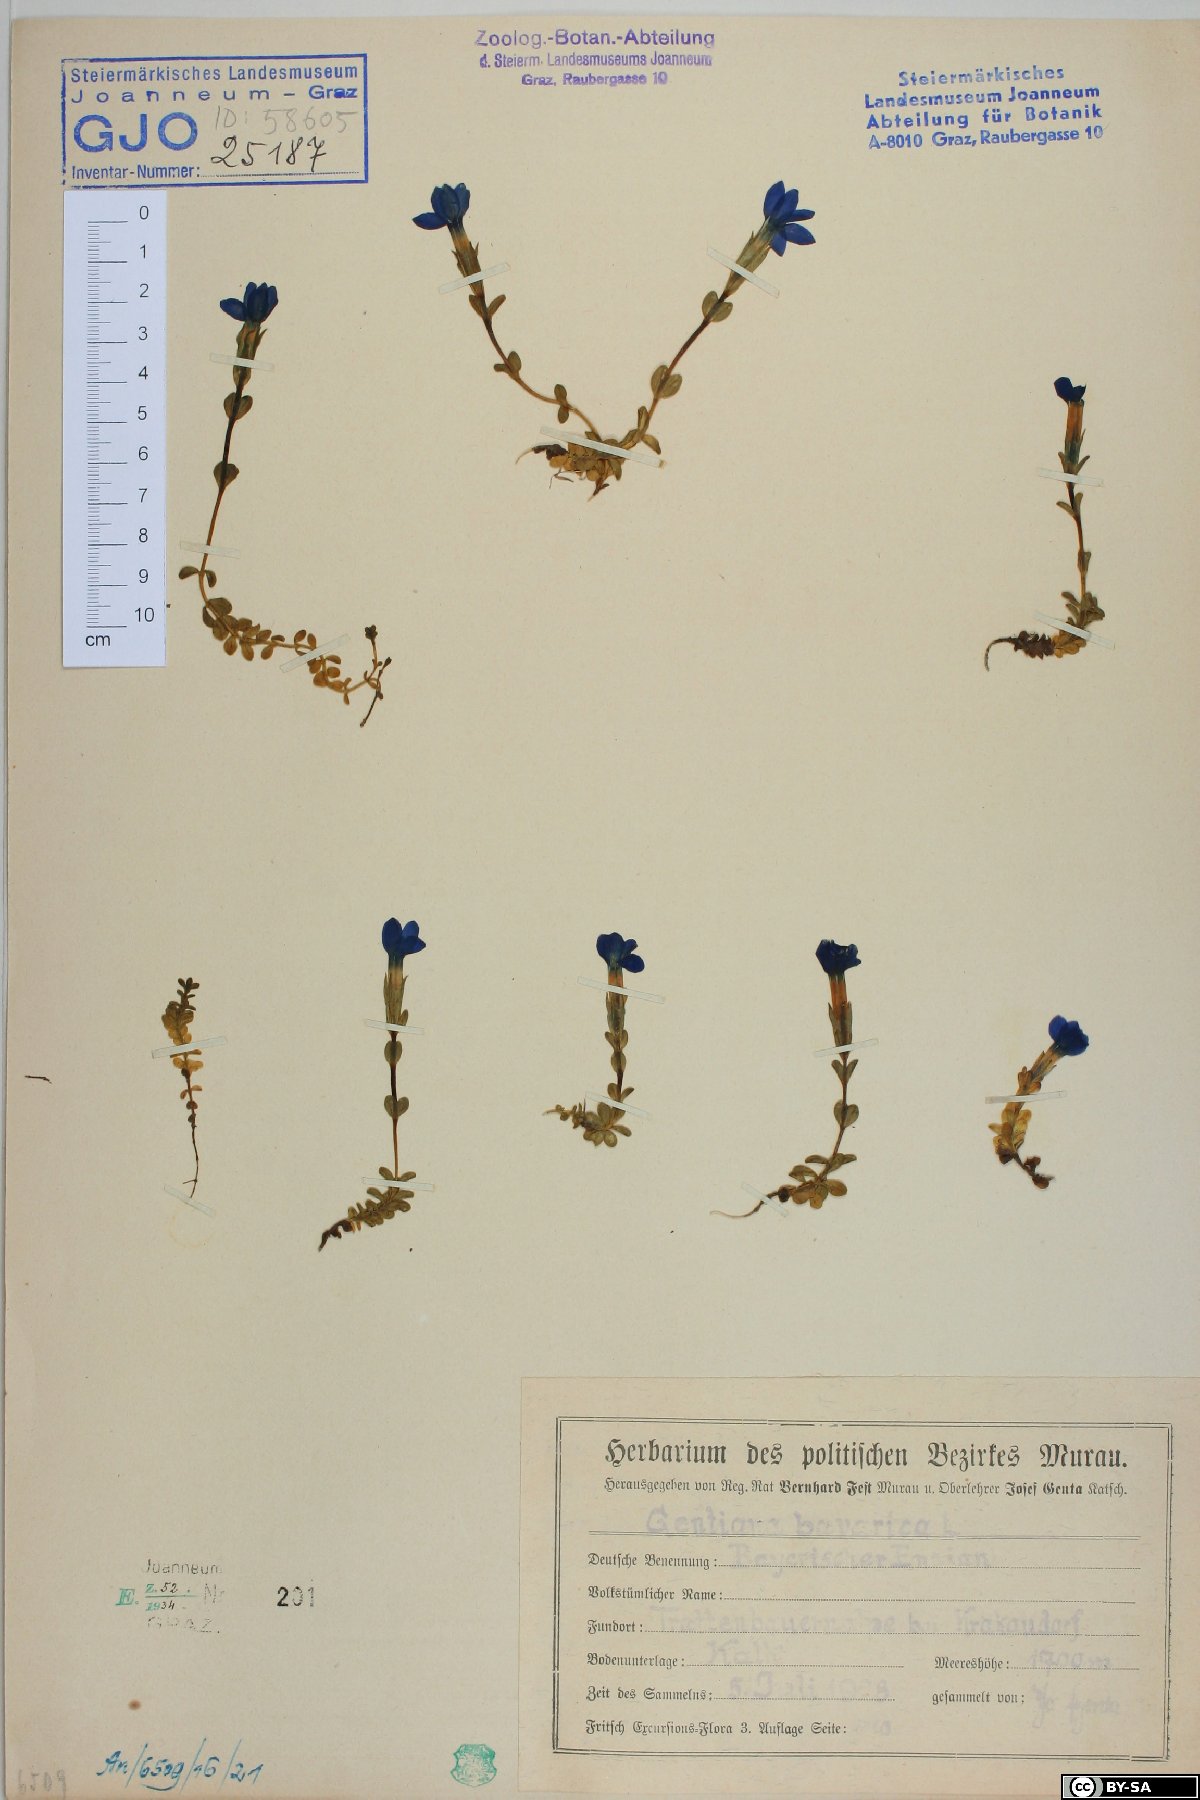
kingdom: Plantae
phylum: Tracheophyta
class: Magnoliopsida
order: Gentianales
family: Gentianaceae
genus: Gentiana
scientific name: Gentiana bavarica
